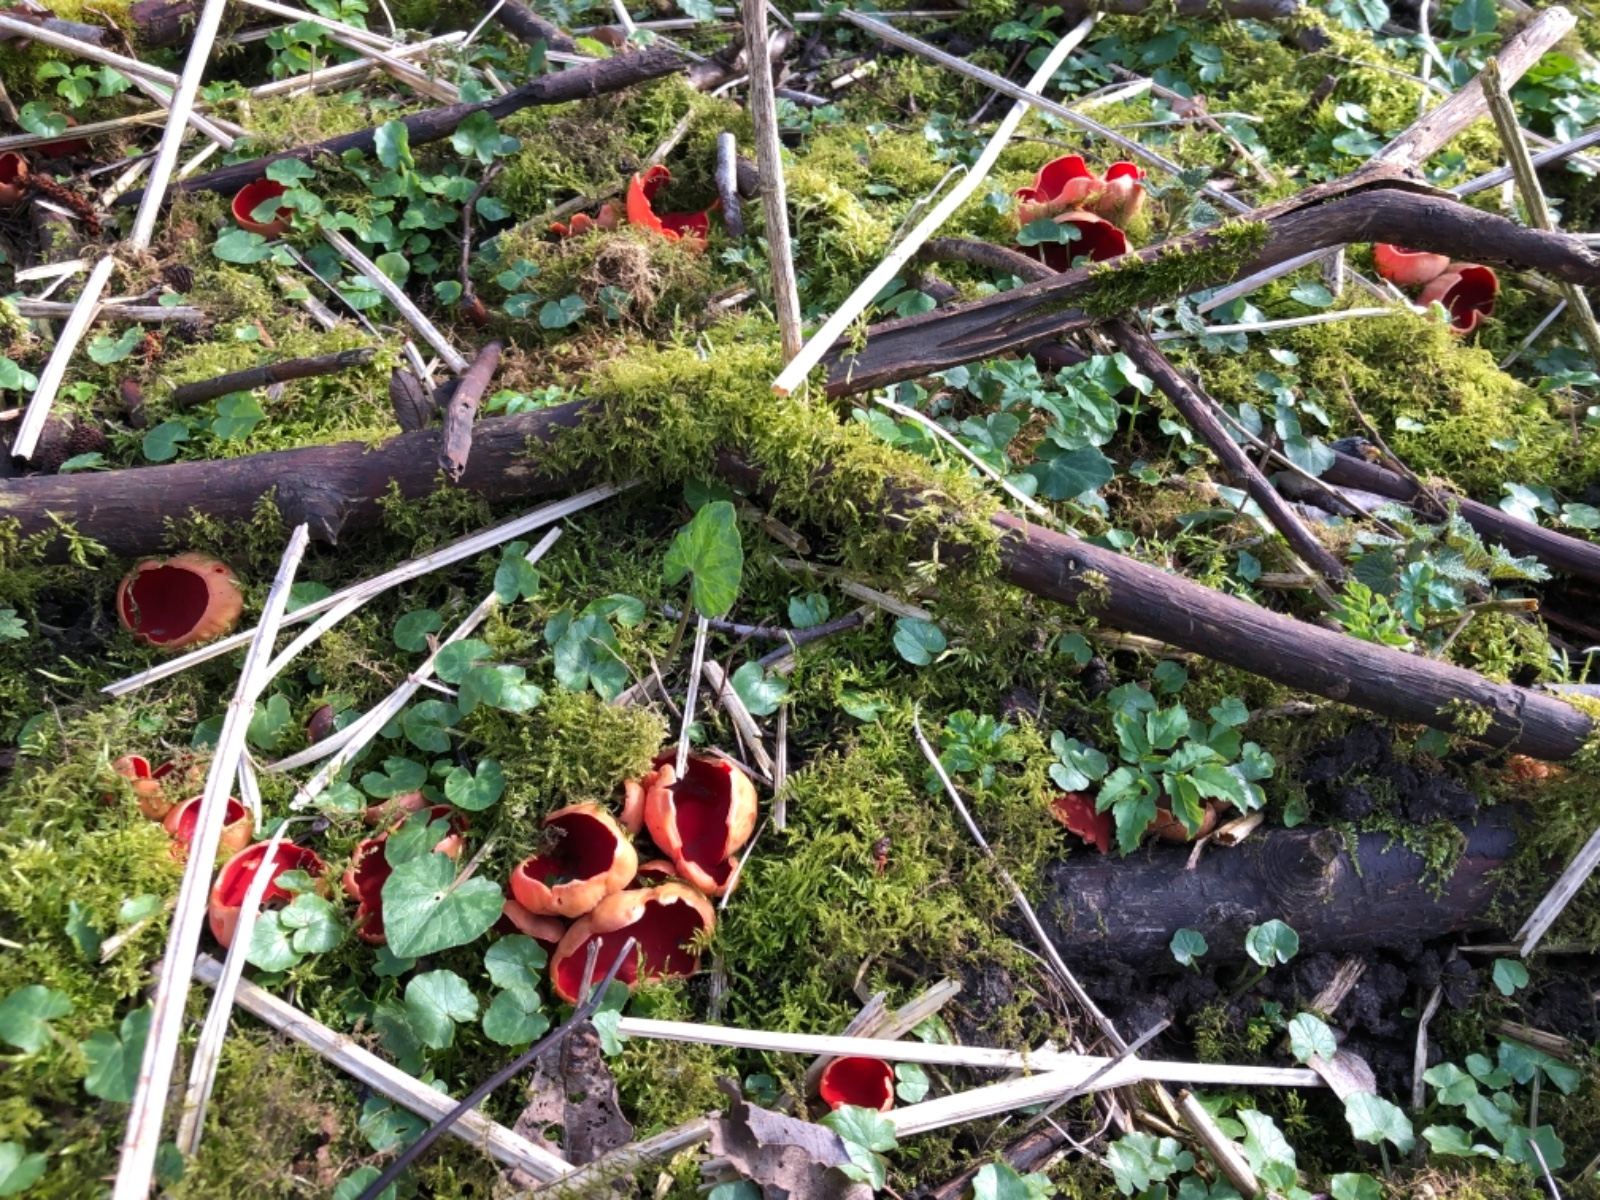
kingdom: Fungi
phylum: Ascomycota
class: Pezizomycetes
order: Pezizales
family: Sarcoscyphaceae
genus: Sarcoscypha
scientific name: Sarcoscypha austriaca
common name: krølhåret pragtbæger
